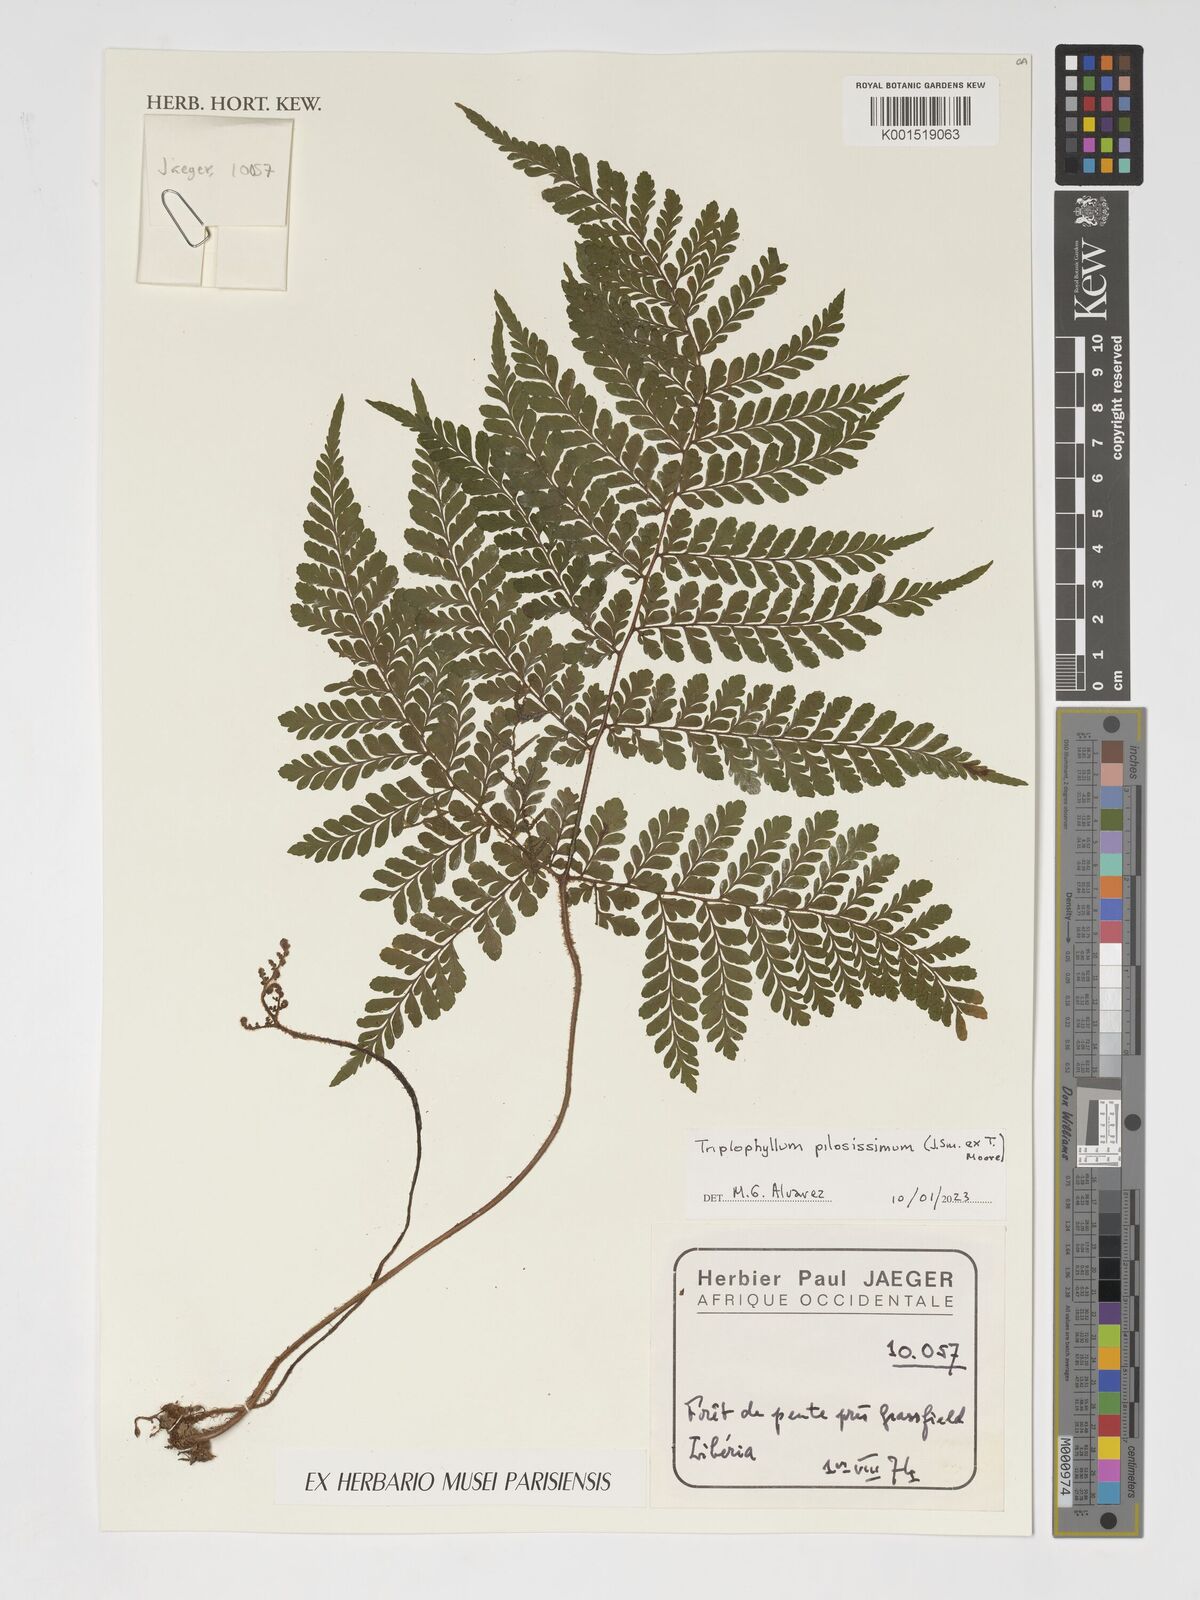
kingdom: Plantae
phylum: Tracheophyta
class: Polypodiopsida
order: Polypodiales
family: Tectariaceae
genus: Triplophyllum
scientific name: Triplophyllum pilosissimum
